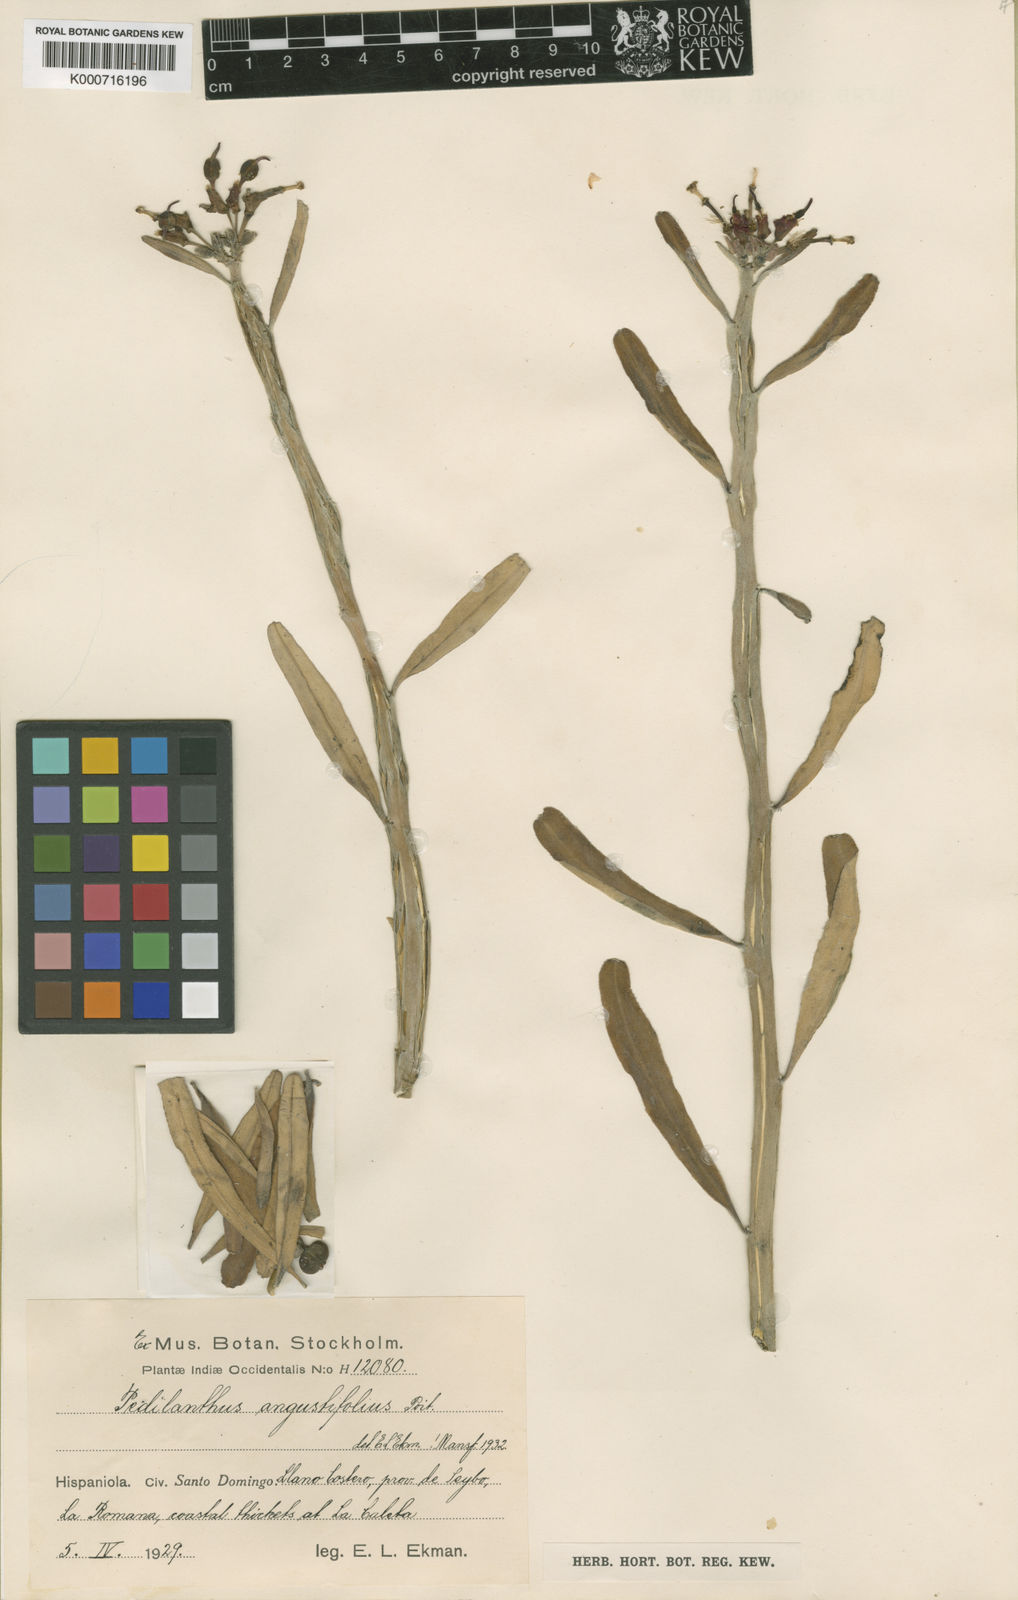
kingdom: Plantae
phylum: Tracheophyta
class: Magnoliopsida
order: Malpighiales
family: Euphorbiaceae
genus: Euphorbia
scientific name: Euphorbia tithymaloides
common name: Slipperplant
